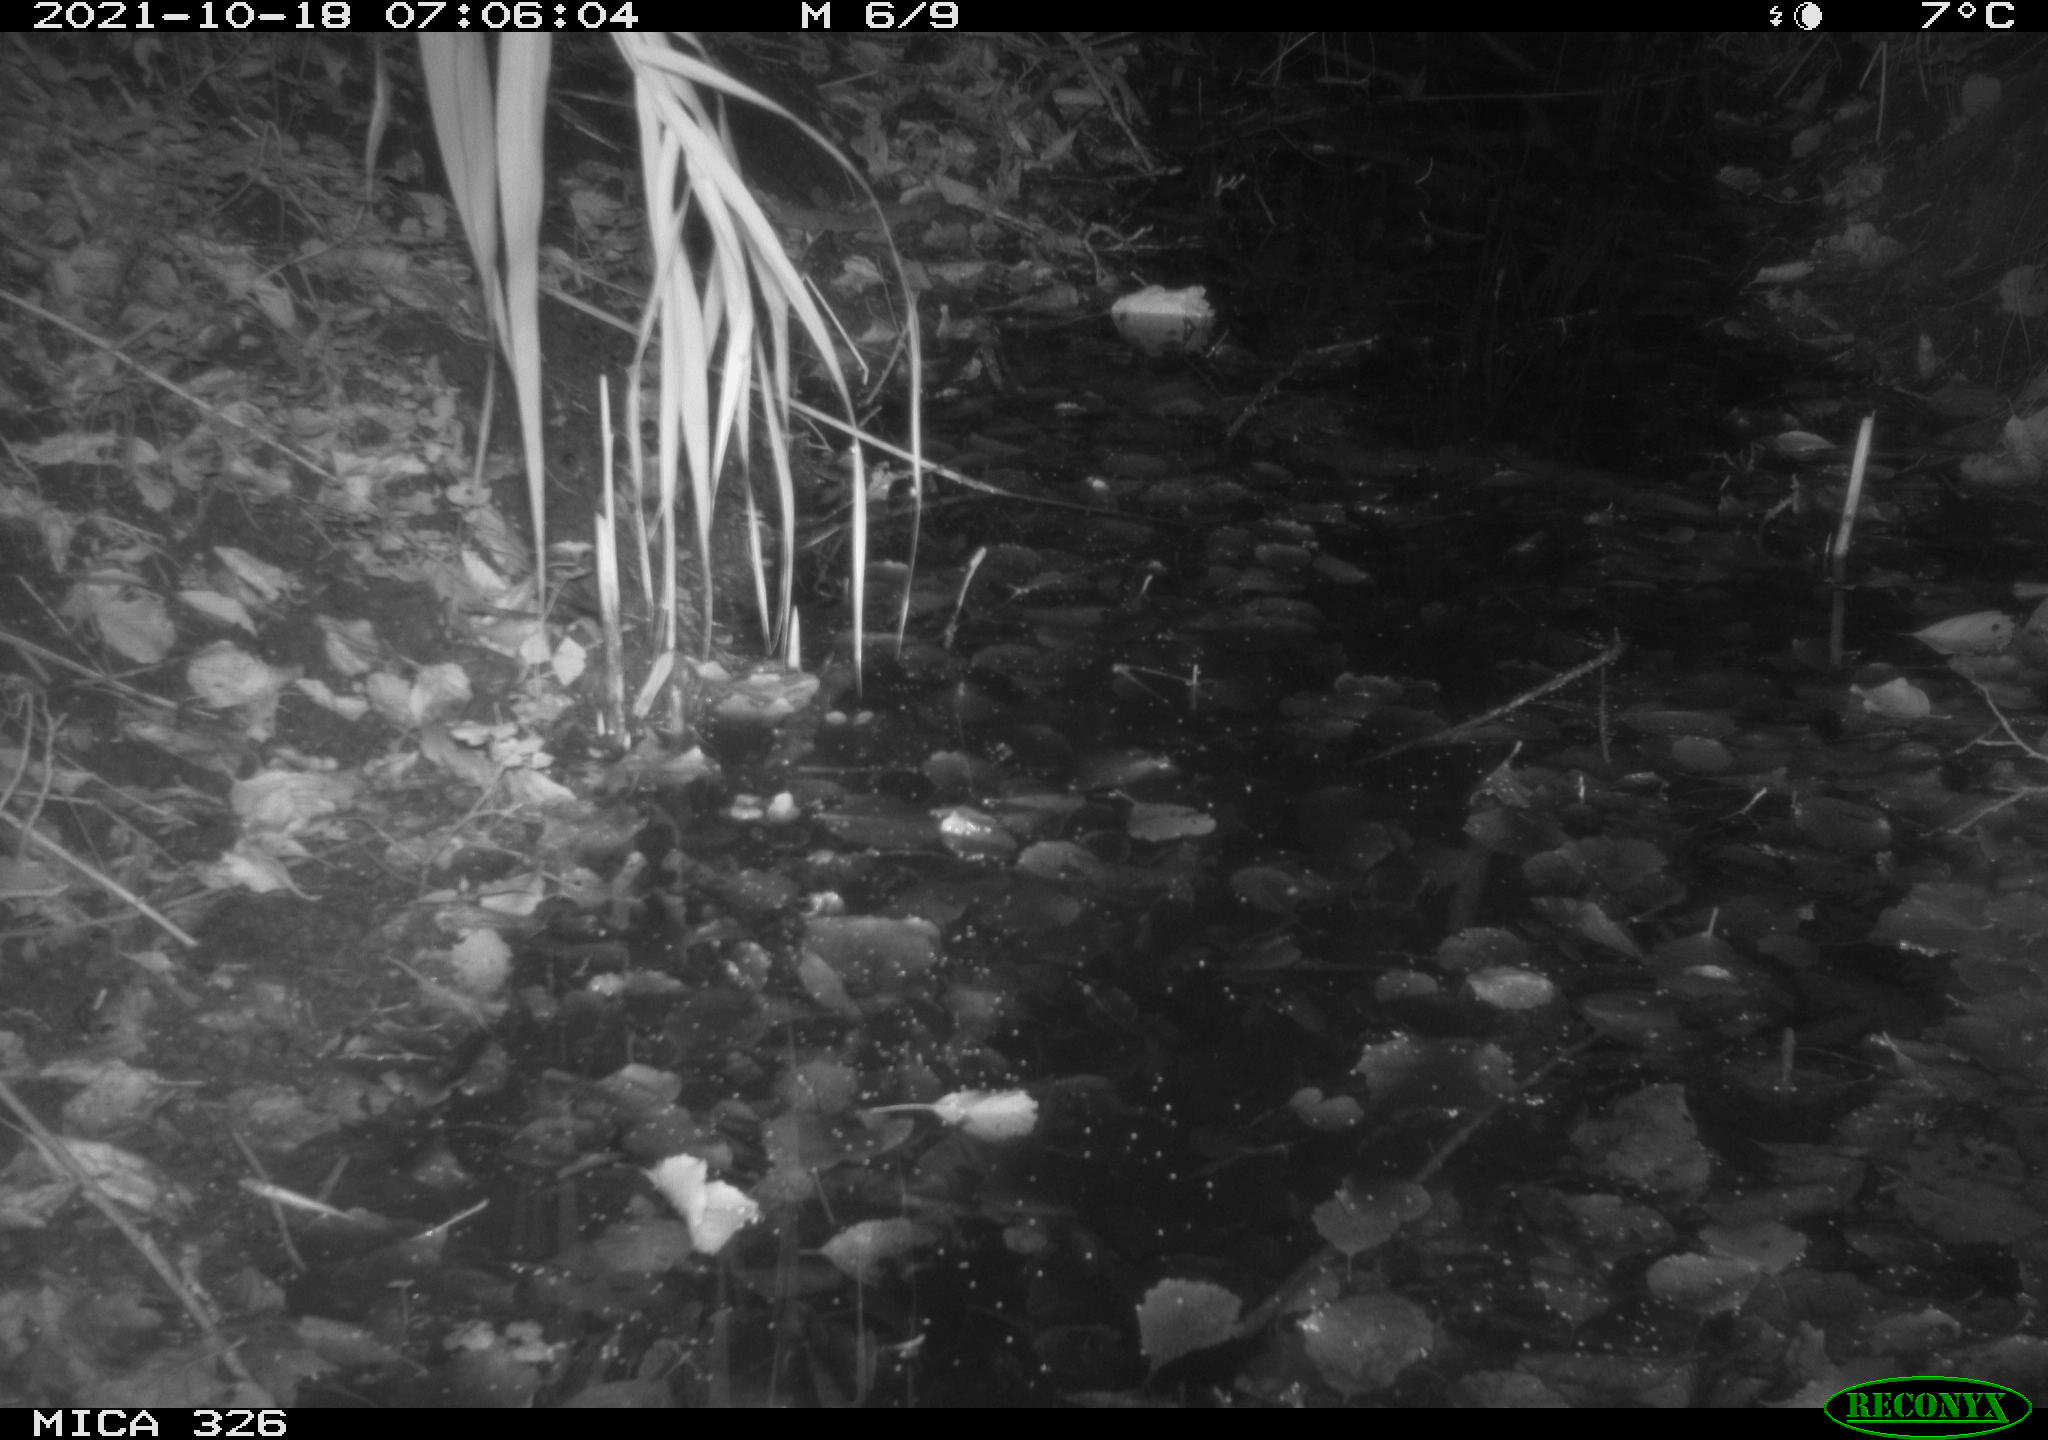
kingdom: Animalia
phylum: Chordata
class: Mammalia
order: Rodentia
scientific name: Rodentia
